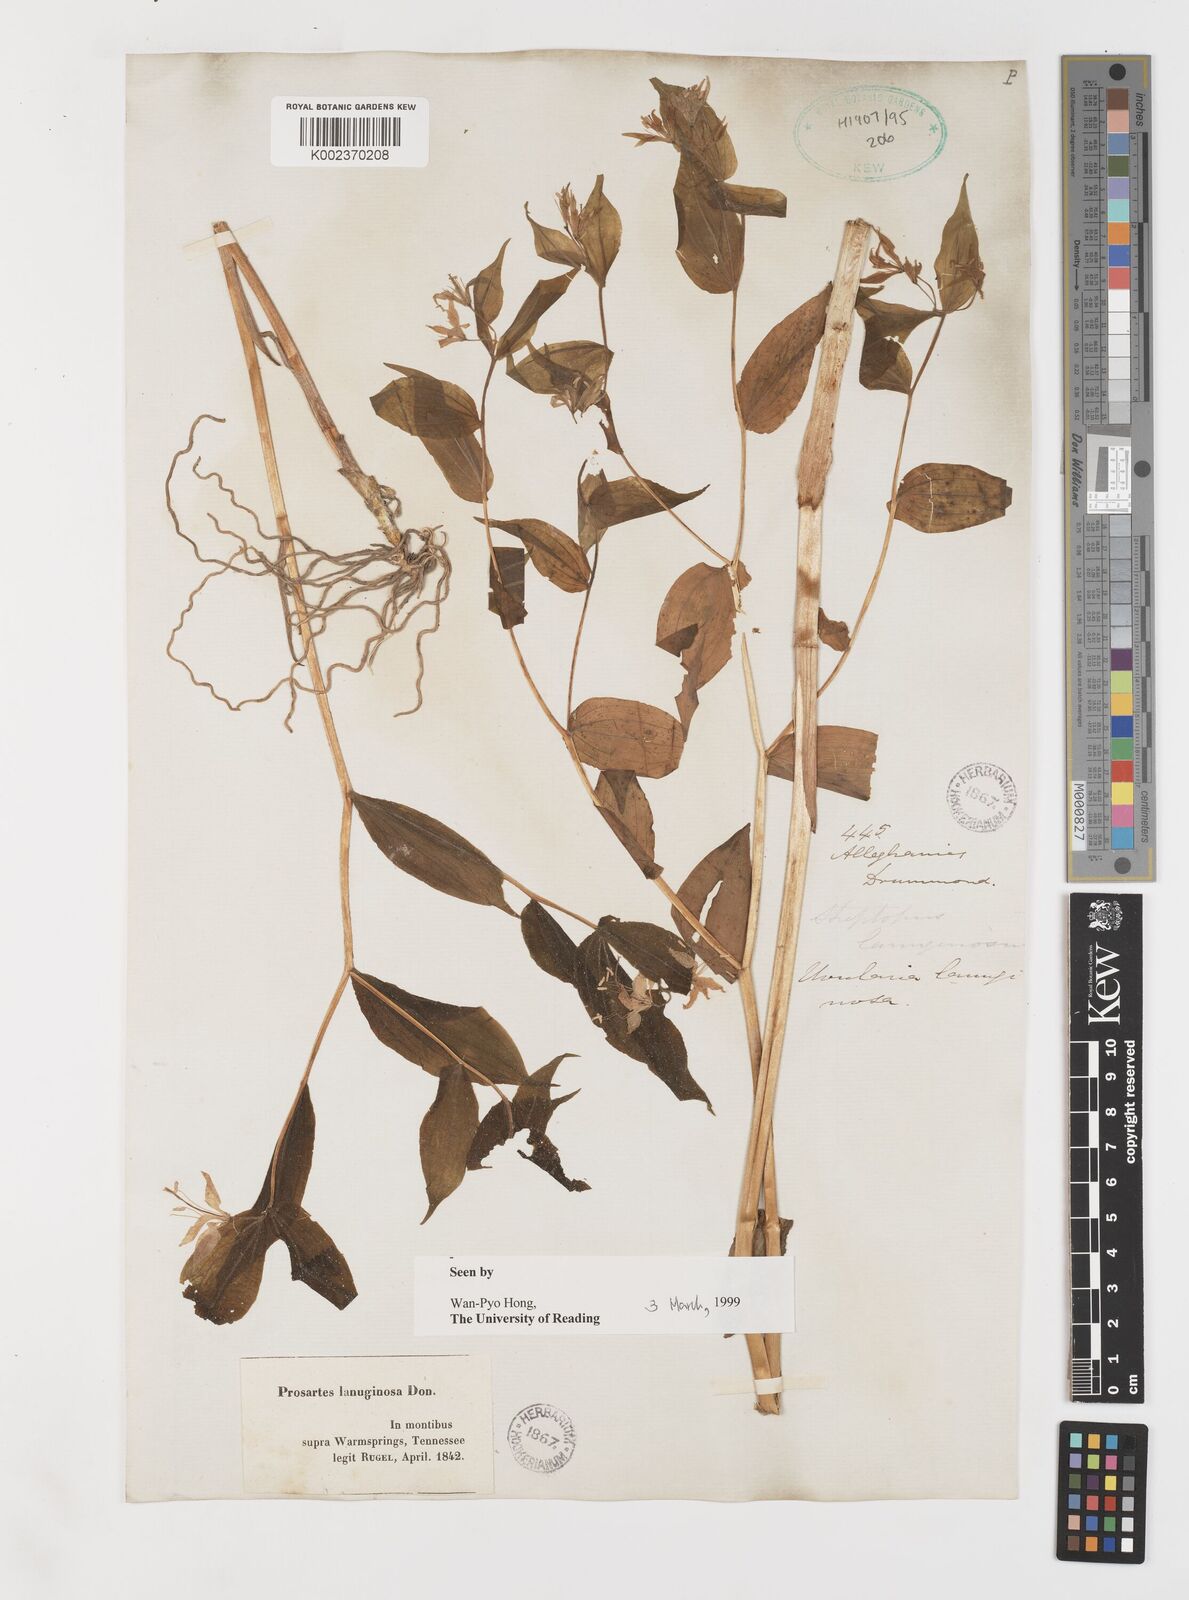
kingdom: Plantae
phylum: Tracheophyta
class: Liliopsida
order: Liliales
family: Liliaceae
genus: Prosartes
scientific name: Prosartes lanuginosa
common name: Hairy mandarin
